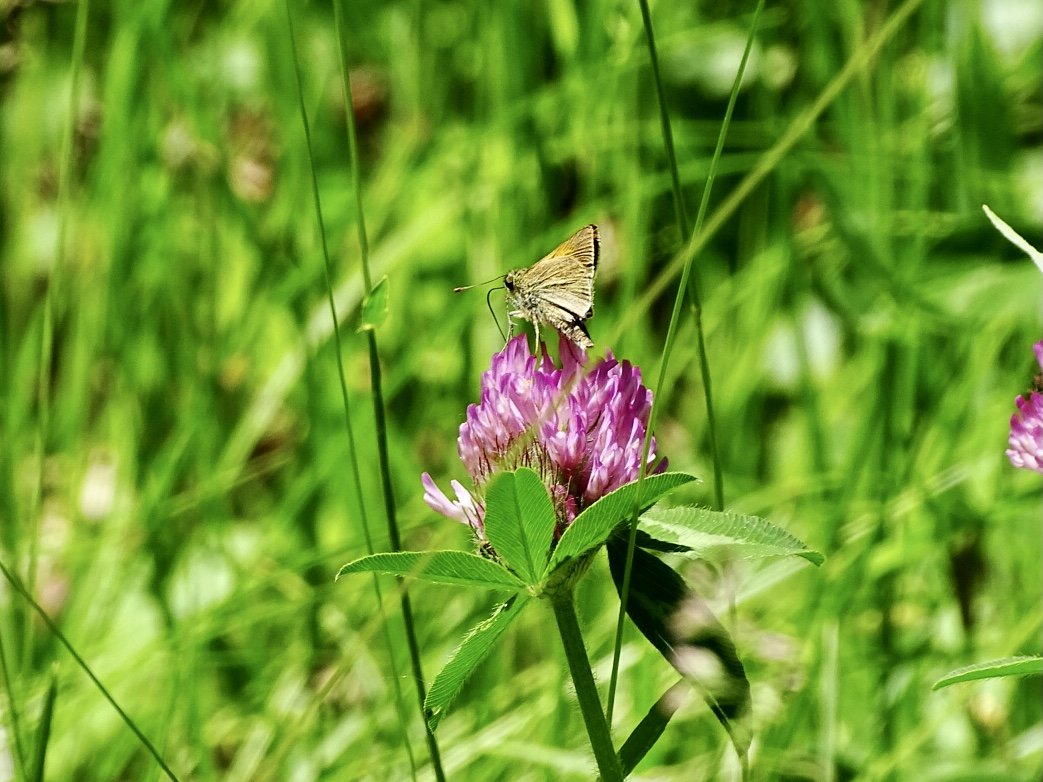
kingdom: Animalia
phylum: Arthropoda
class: Insecta
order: Lepidoptera
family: Hesperiidae
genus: Polites
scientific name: Polites themistocles
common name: Tawny-edged Skipper
